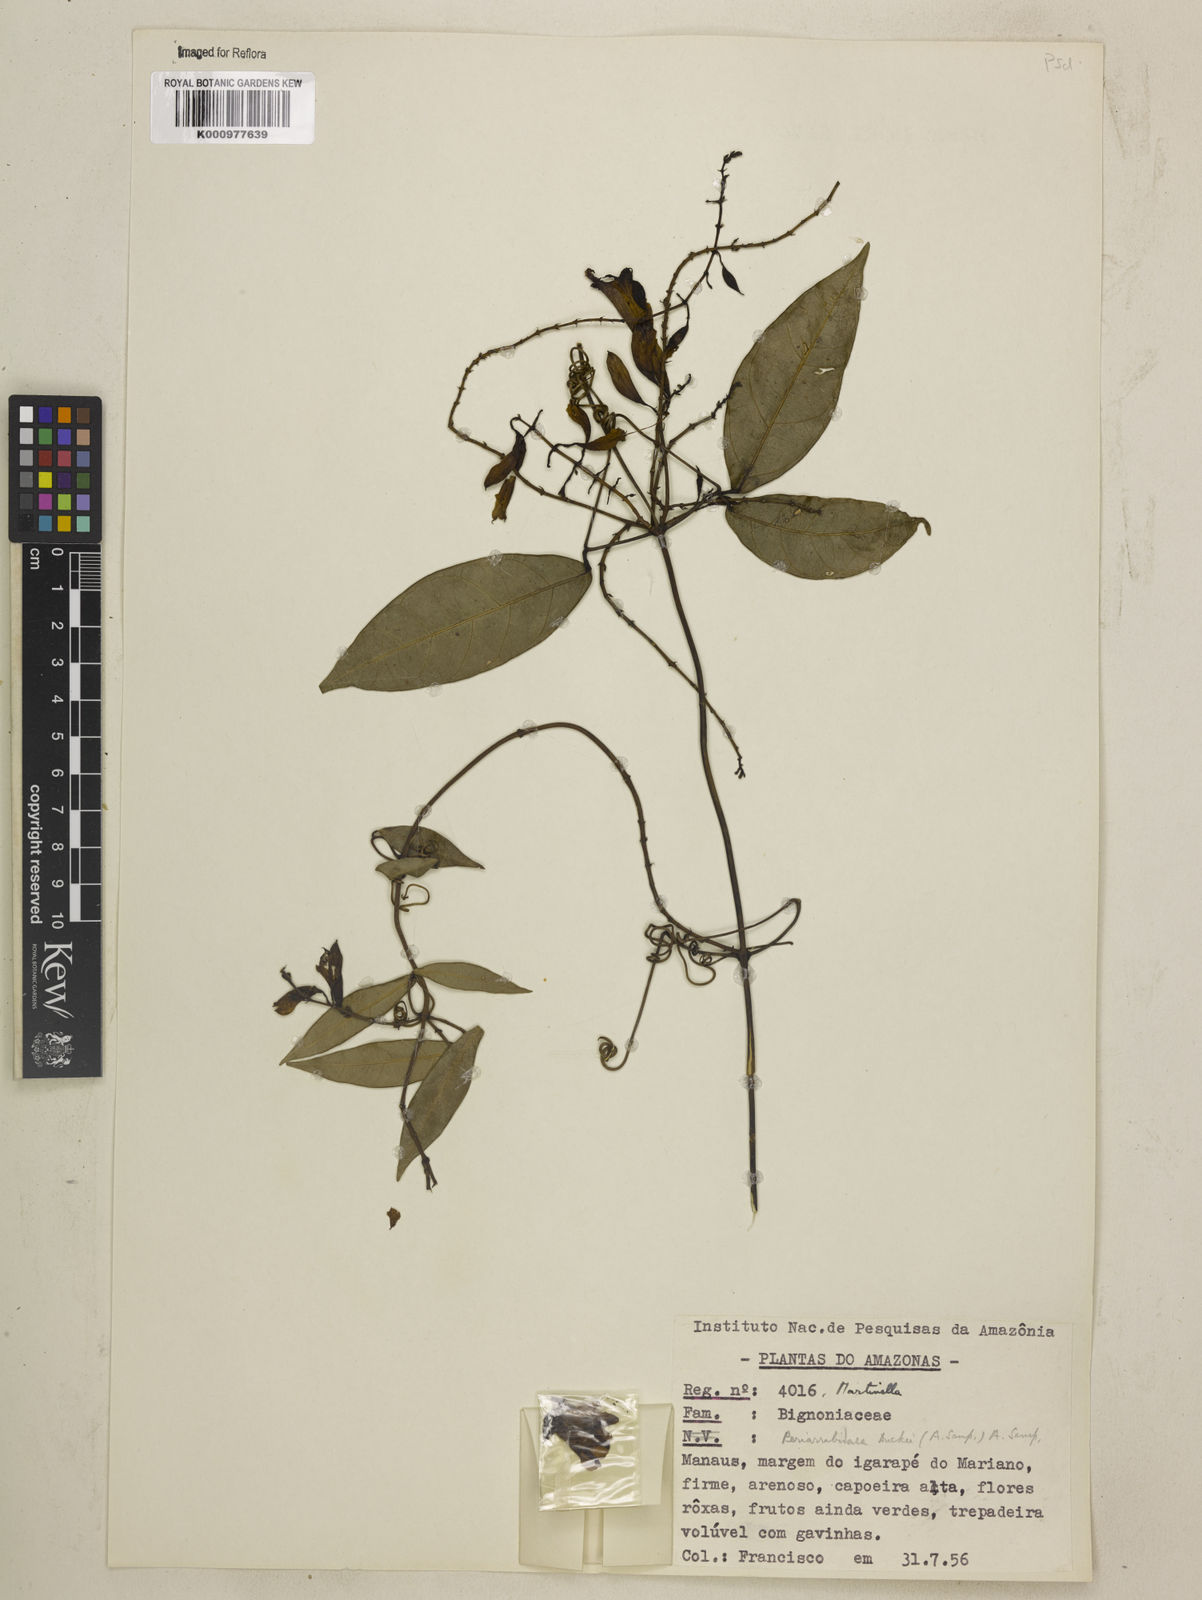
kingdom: Animalia
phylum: Arthropoda
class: Insecta
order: Coleoptera
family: Chrysomelidae
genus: Martinella
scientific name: Martinella obovata
